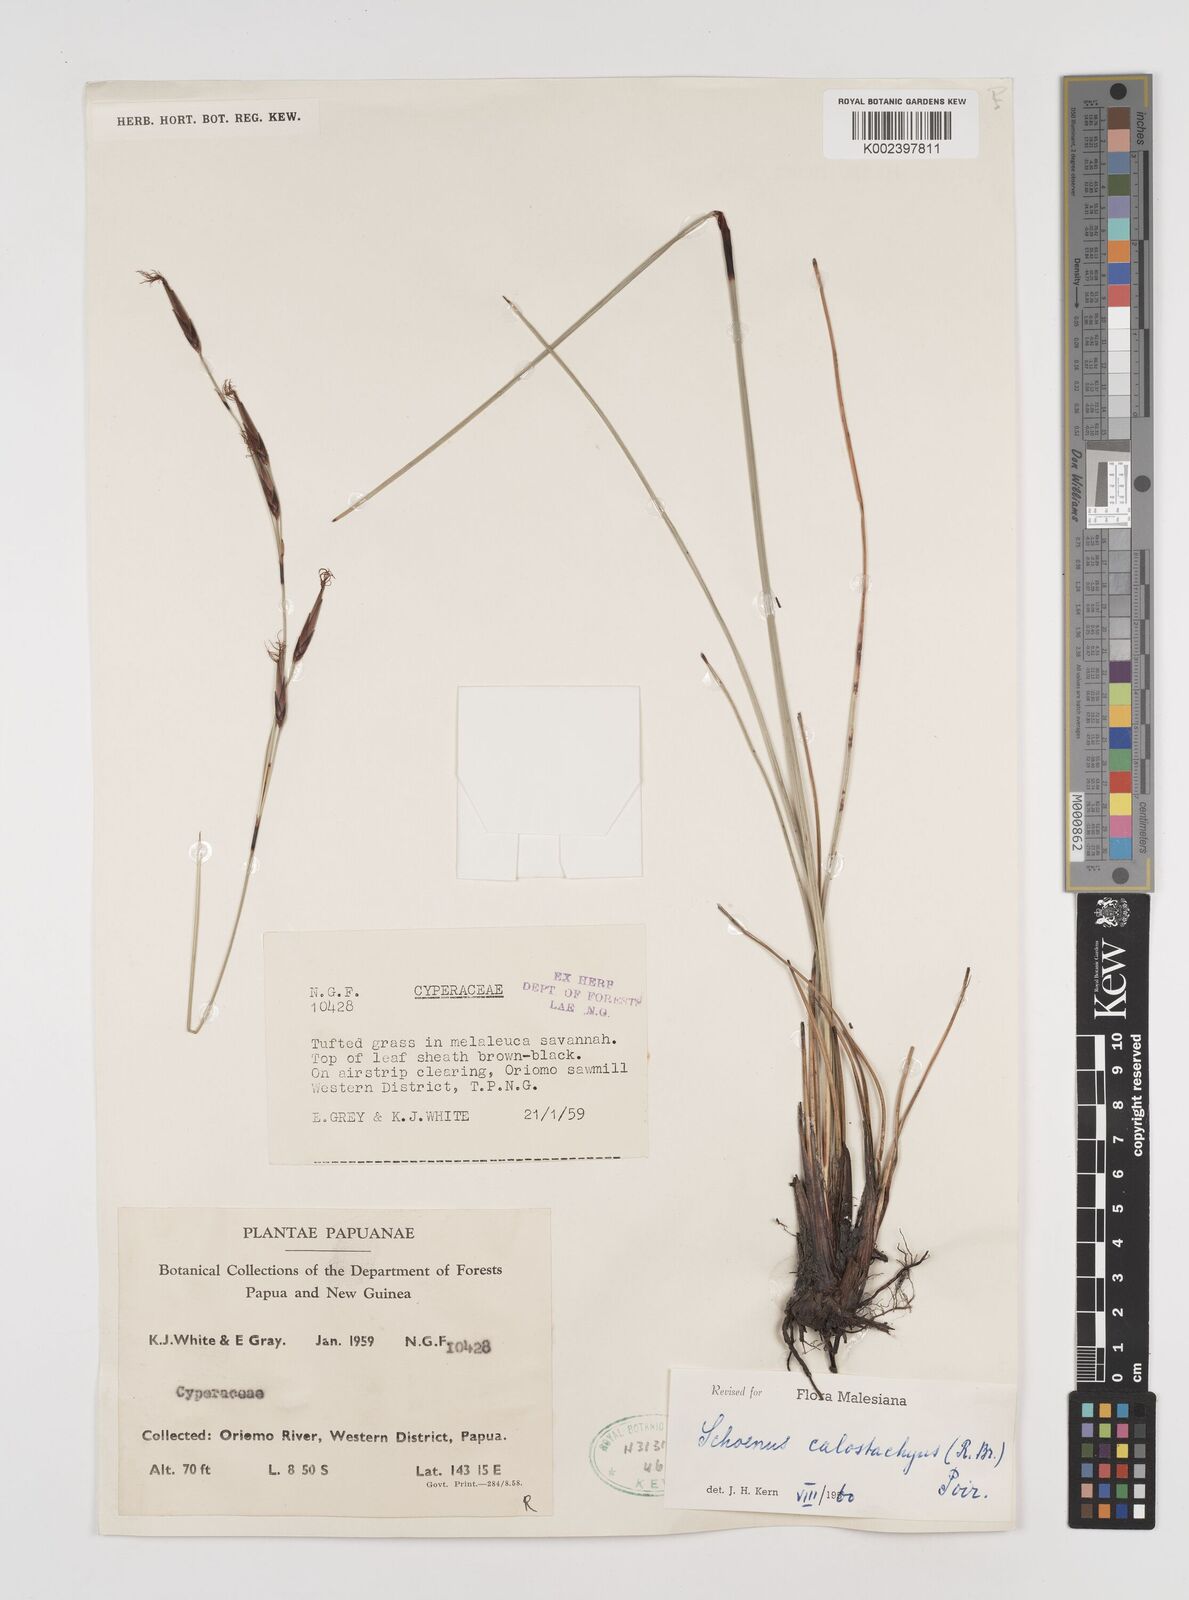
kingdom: Plantae
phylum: Tracheophyta
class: Liliopsida
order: Poales
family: Cyperaceae
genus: Schoenus
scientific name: Schoenus calostachyus
